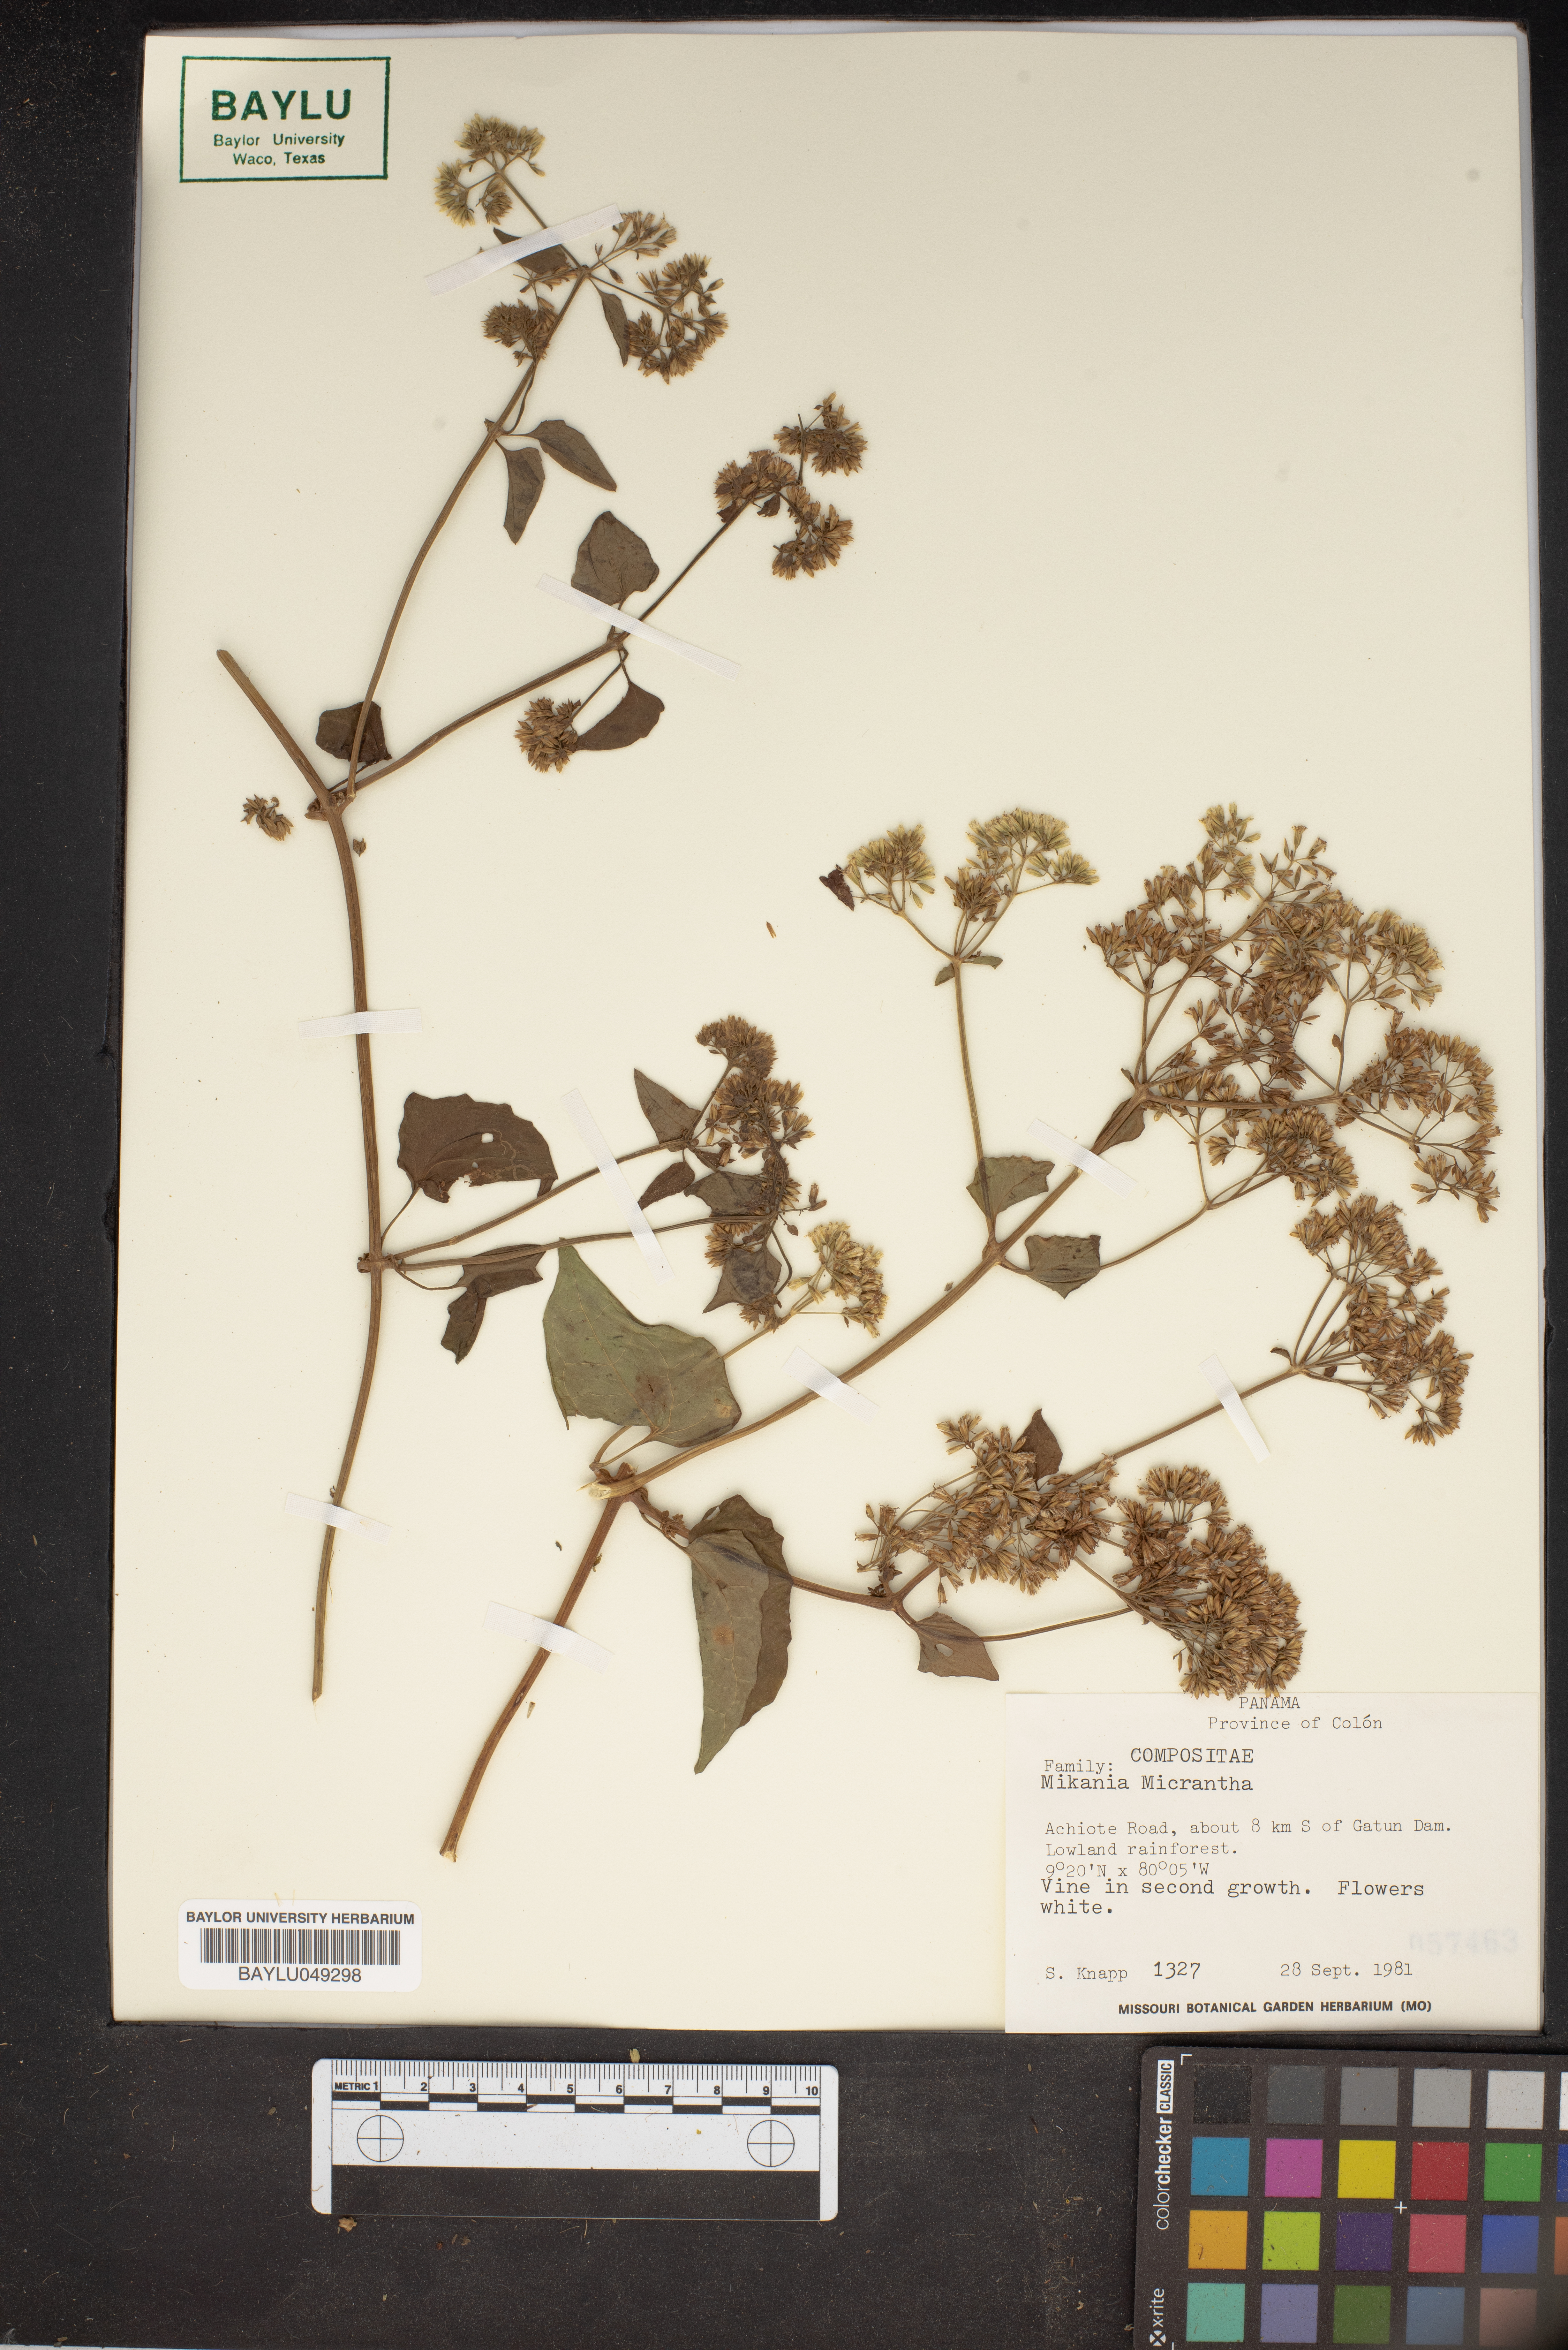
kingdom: Plantae
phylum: Tracheophyta
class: Magnoliopsida
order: Asterales
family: Asteraceae
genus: Mikania
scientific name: Mikania micrantha
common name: Mile-a-minute
